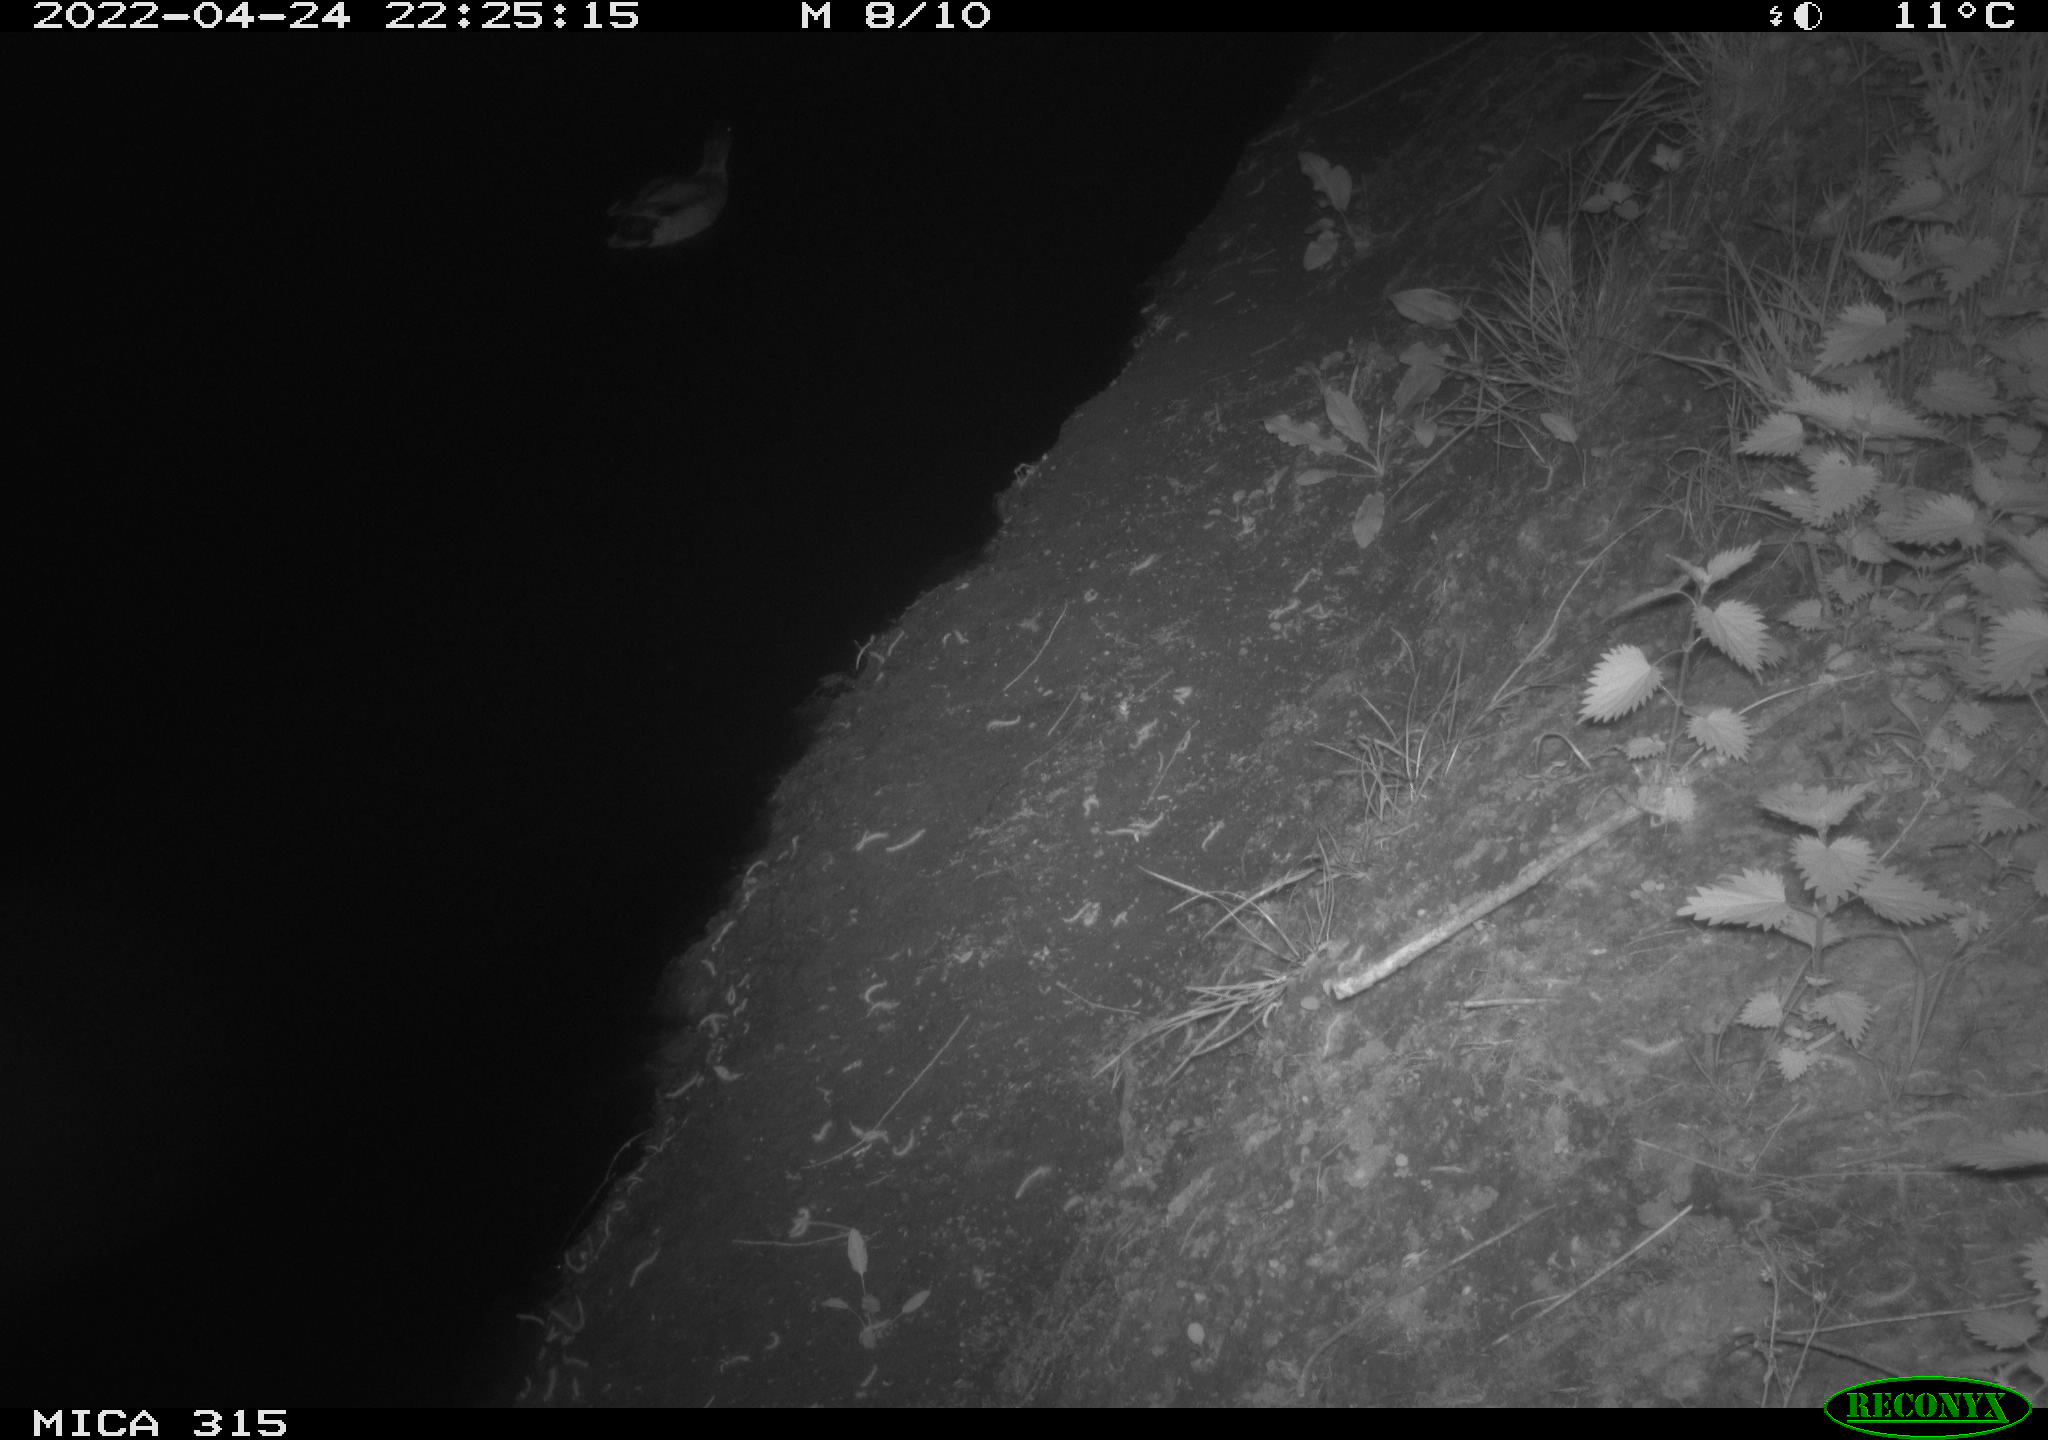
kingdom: Animalia
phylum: Chordata
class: Aves
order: Anseriformes
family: Anatidae
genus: Anas
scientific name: Anas platyrhynchos
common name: Mallard
